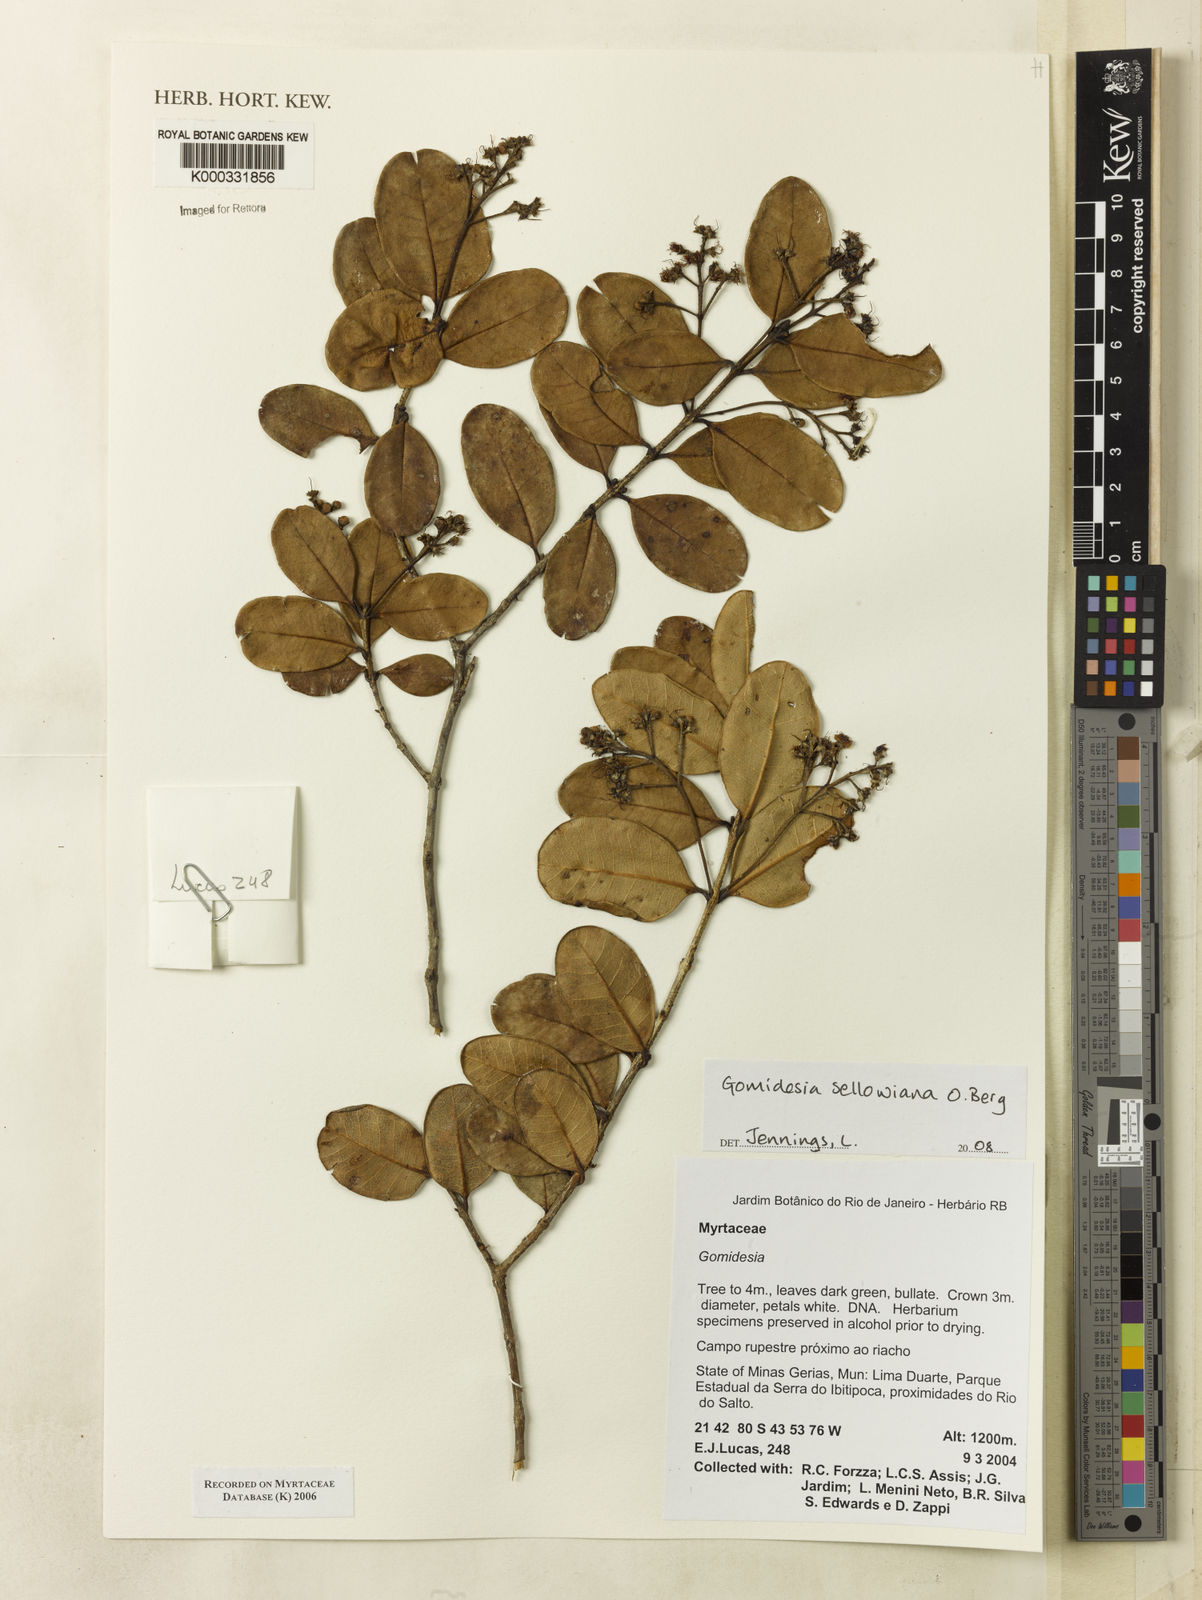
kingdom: Plantae
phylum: Tracheophyta
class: Magnoliopsida
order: Myrtales
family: Myrtaceae
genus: Myrcia
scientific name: Myrcia
